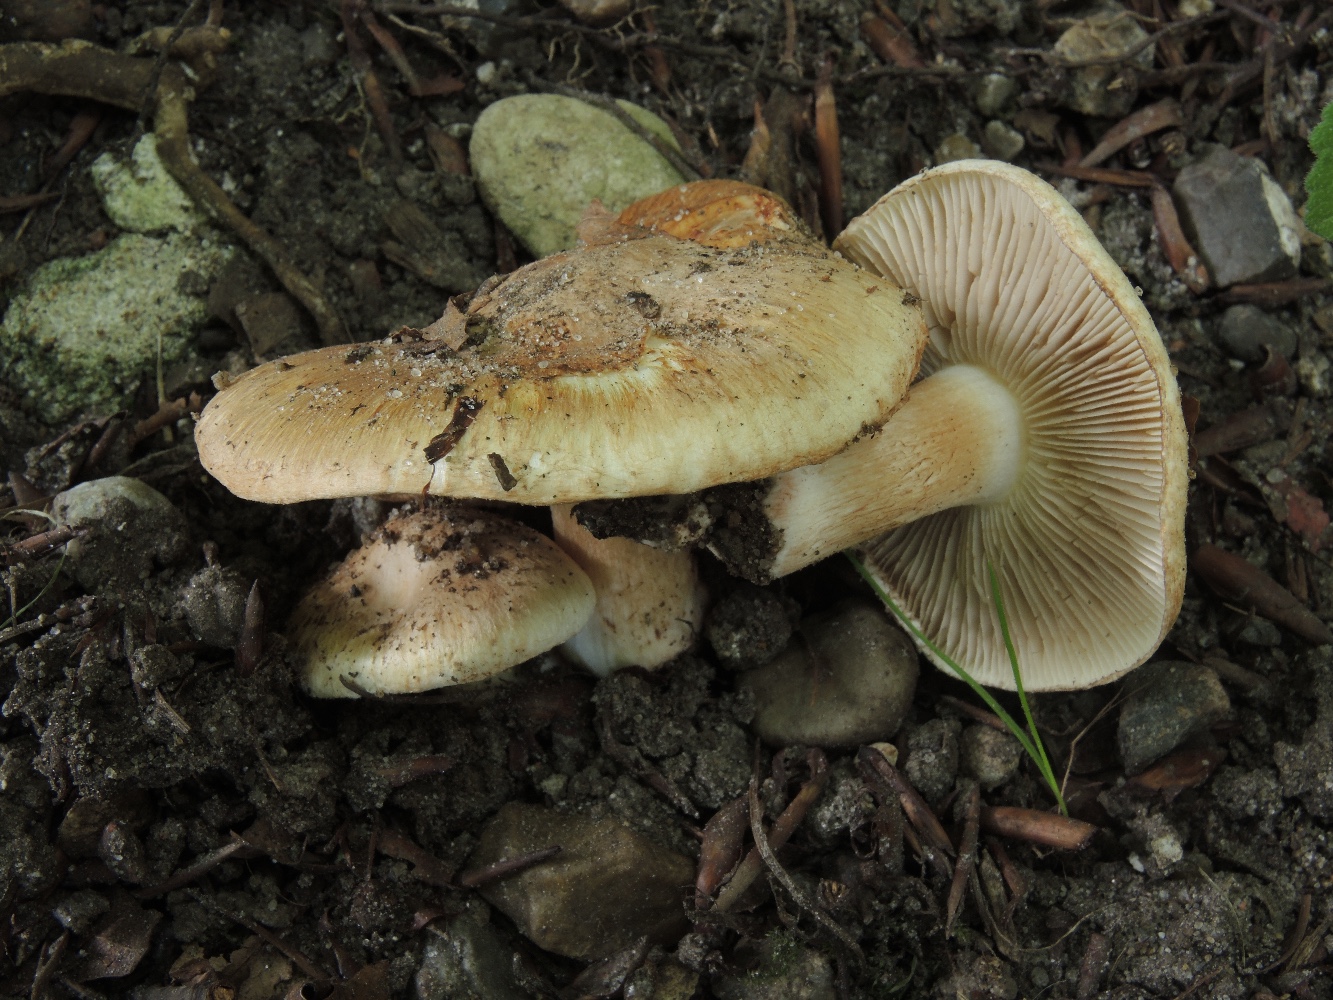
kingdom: Fungi
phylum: Basidiomycota
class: Agaricomycetes
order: Agaricales
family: Inocybaceae
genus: Inocybe
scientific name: Inocybe incarnata
